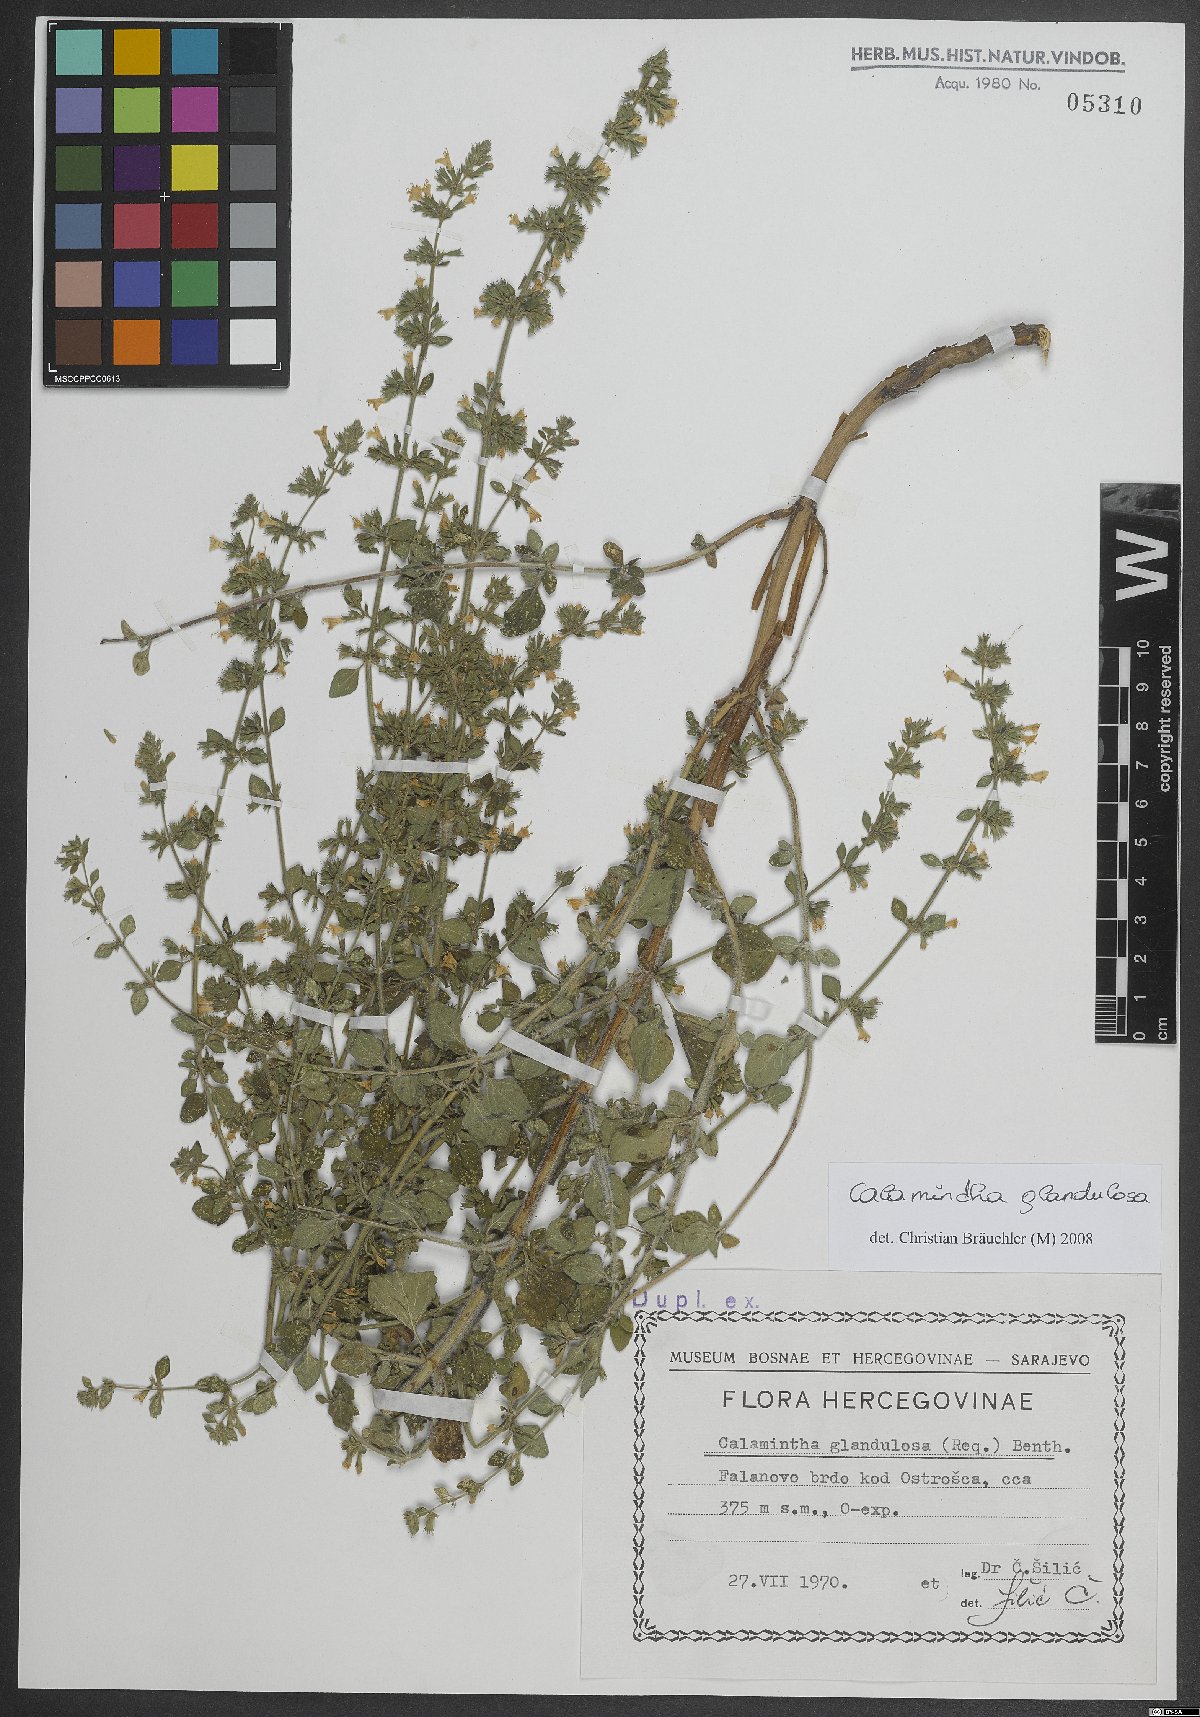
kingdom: Plantae
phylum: Tracheophyta
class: Magnoliopsida
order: Lamiales
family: Lamiaceae
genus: Clinopodium
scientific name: Clinopodium nepeta
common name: Lesser calamint
